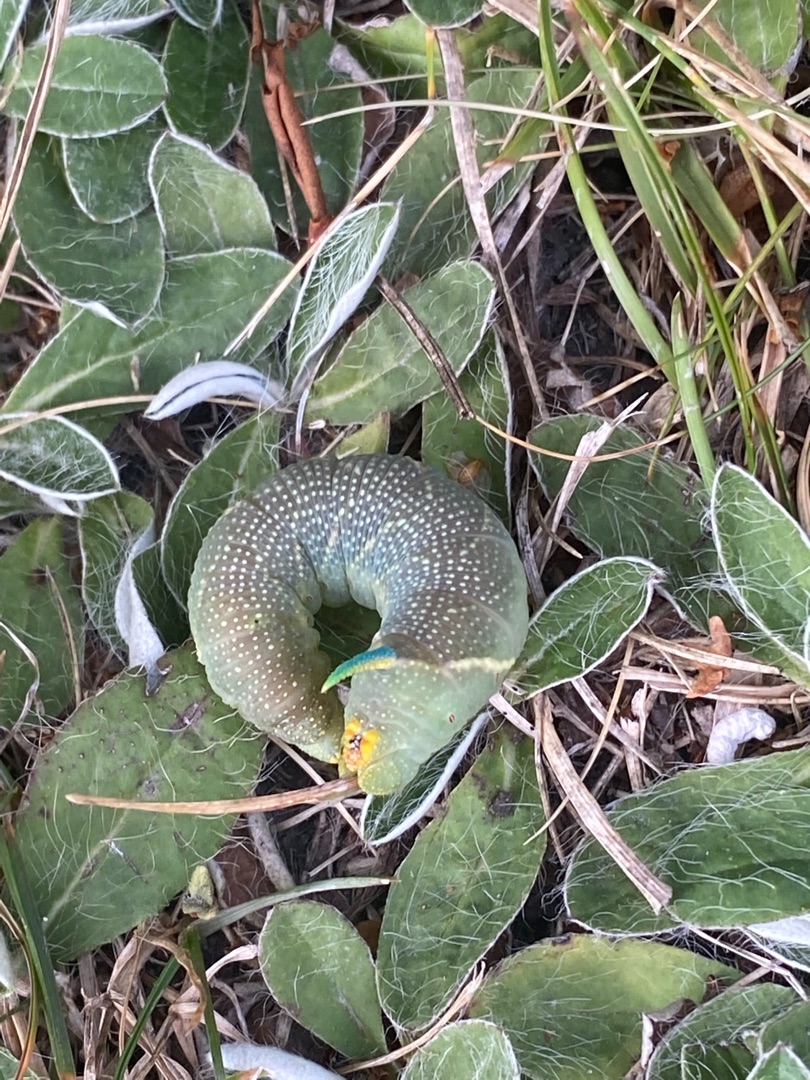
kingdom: Animalia
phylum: Arthropoda
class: Insecta
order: Lepidoptera
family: Sphingidae
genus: Mimas
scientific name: Mimas tiliae
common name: Lindesværmer
